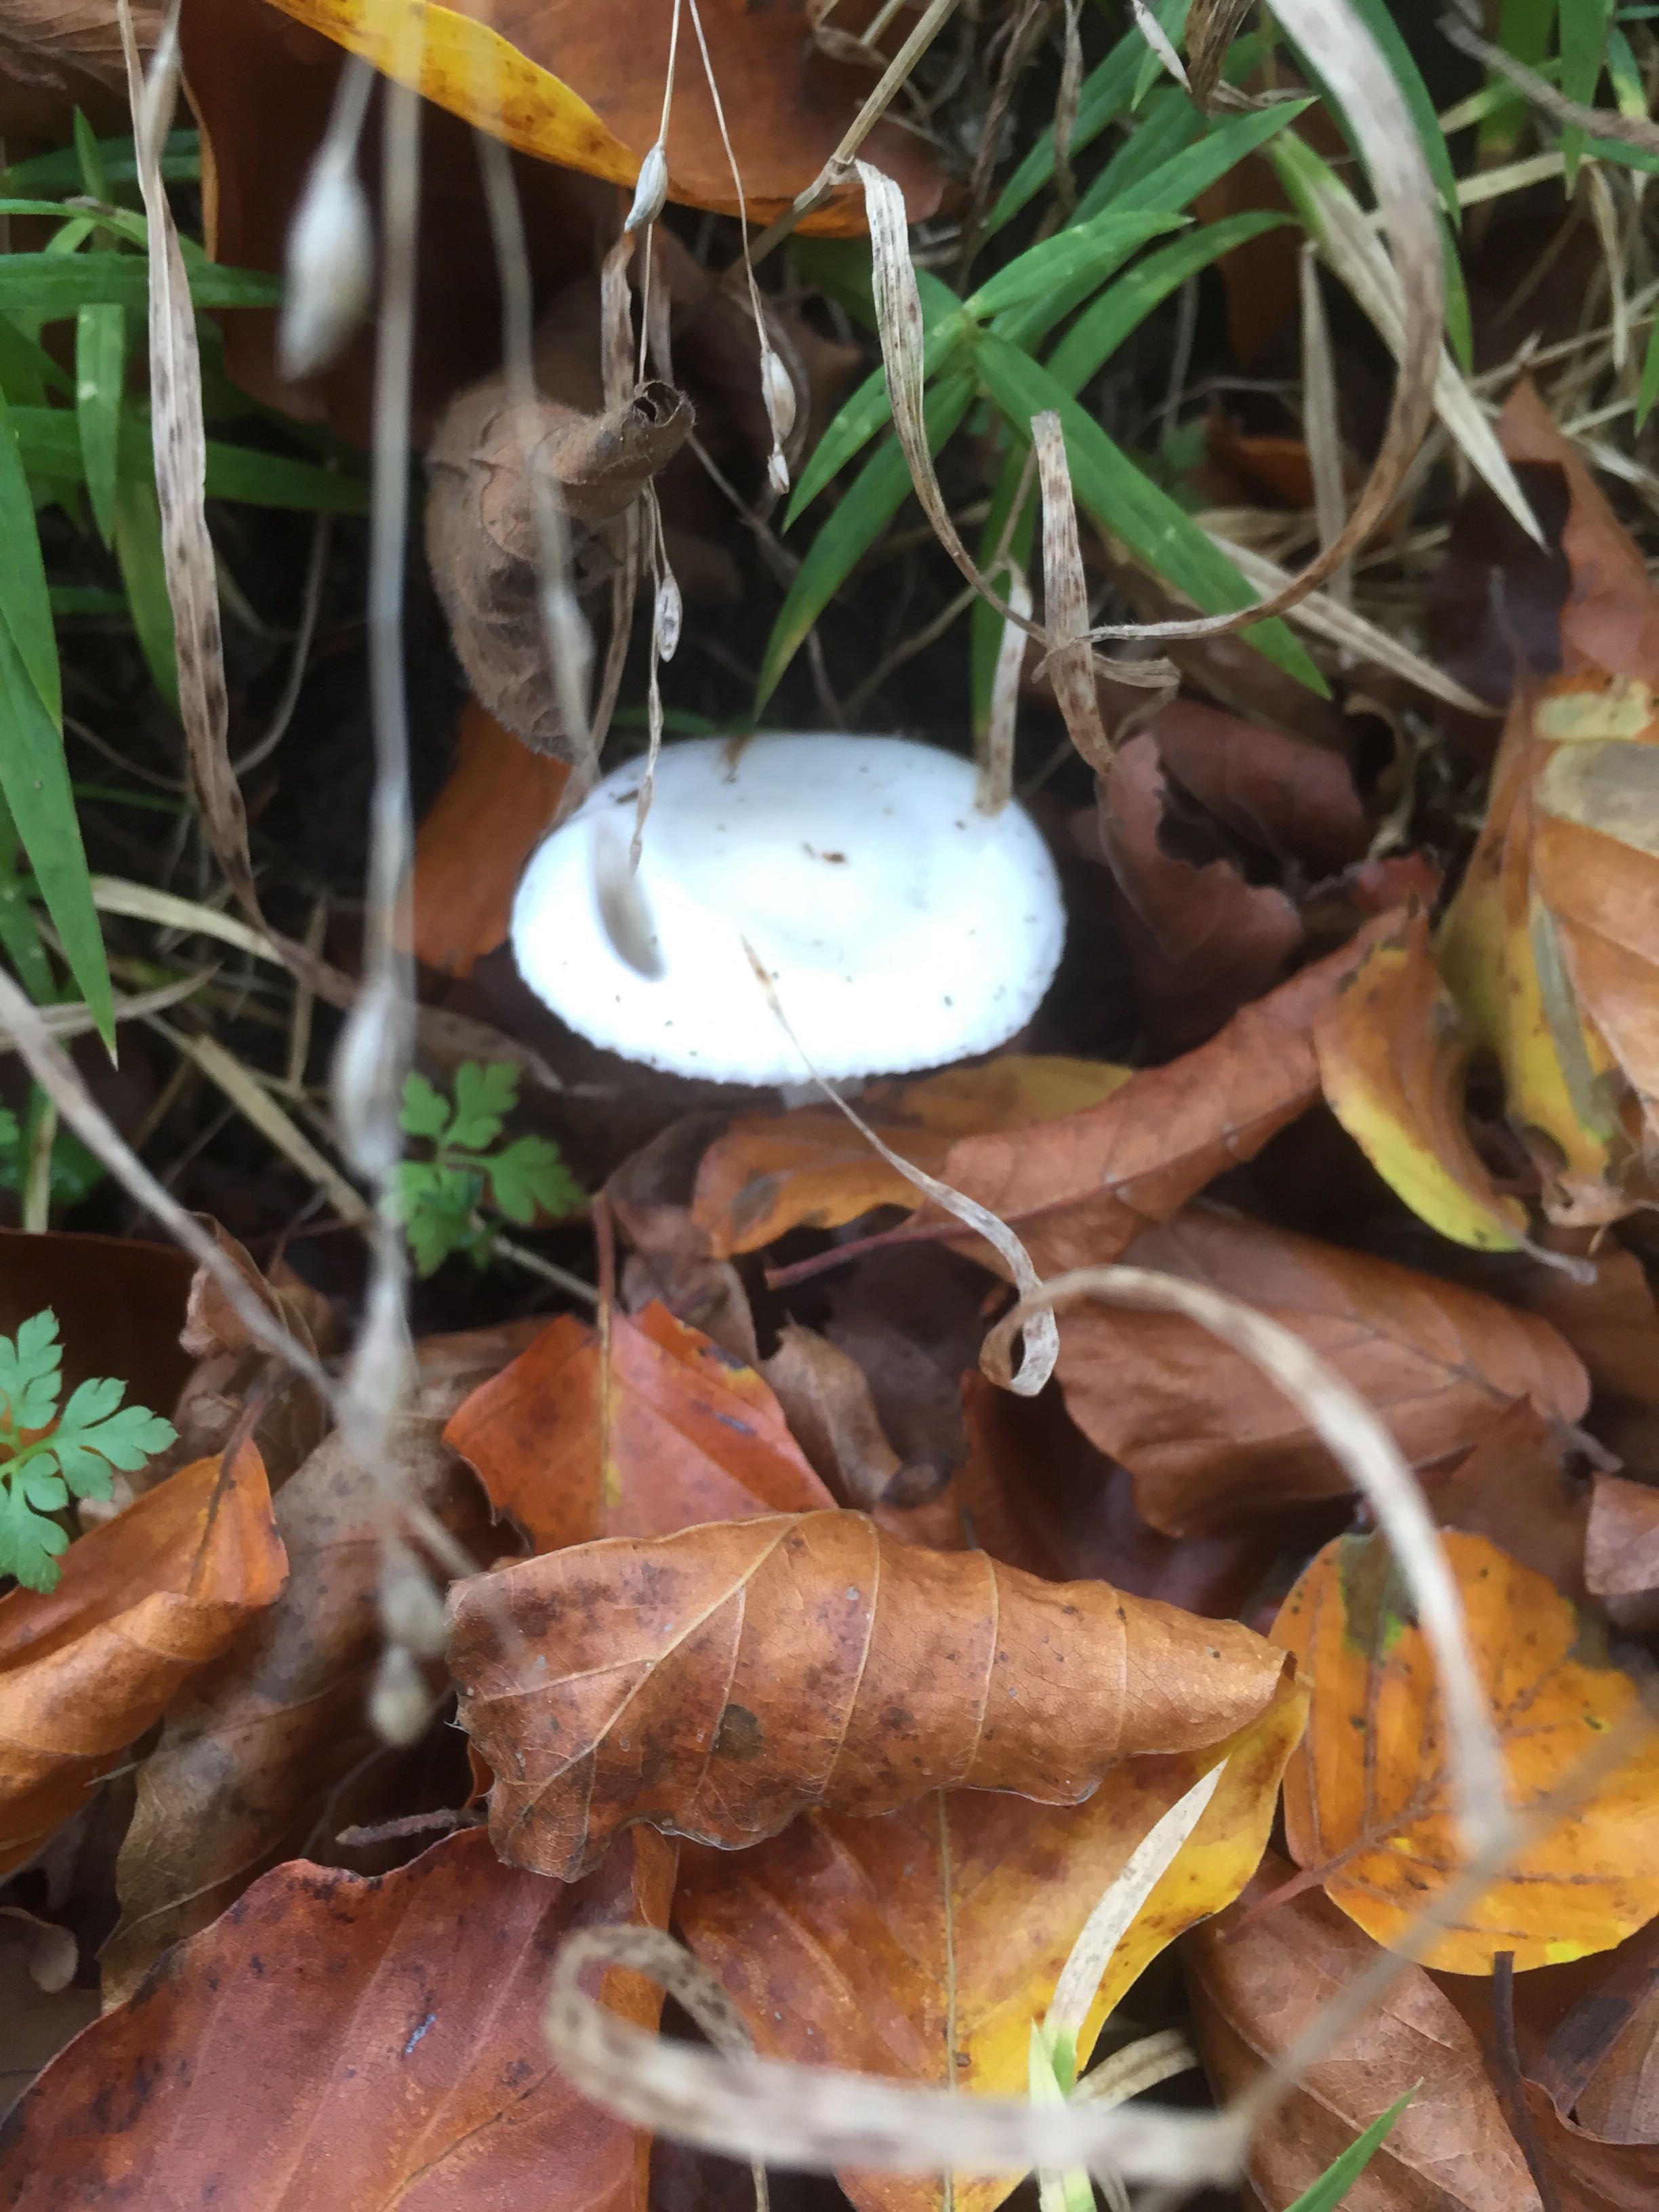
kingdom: Fungi
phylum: Basidiomycota
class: Agaricomycetes
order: Agaricales
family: Hygrophoraceae
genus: Hygrophorus
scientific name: Hygrophorus eburneus
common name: elfenbens-sneglehat
